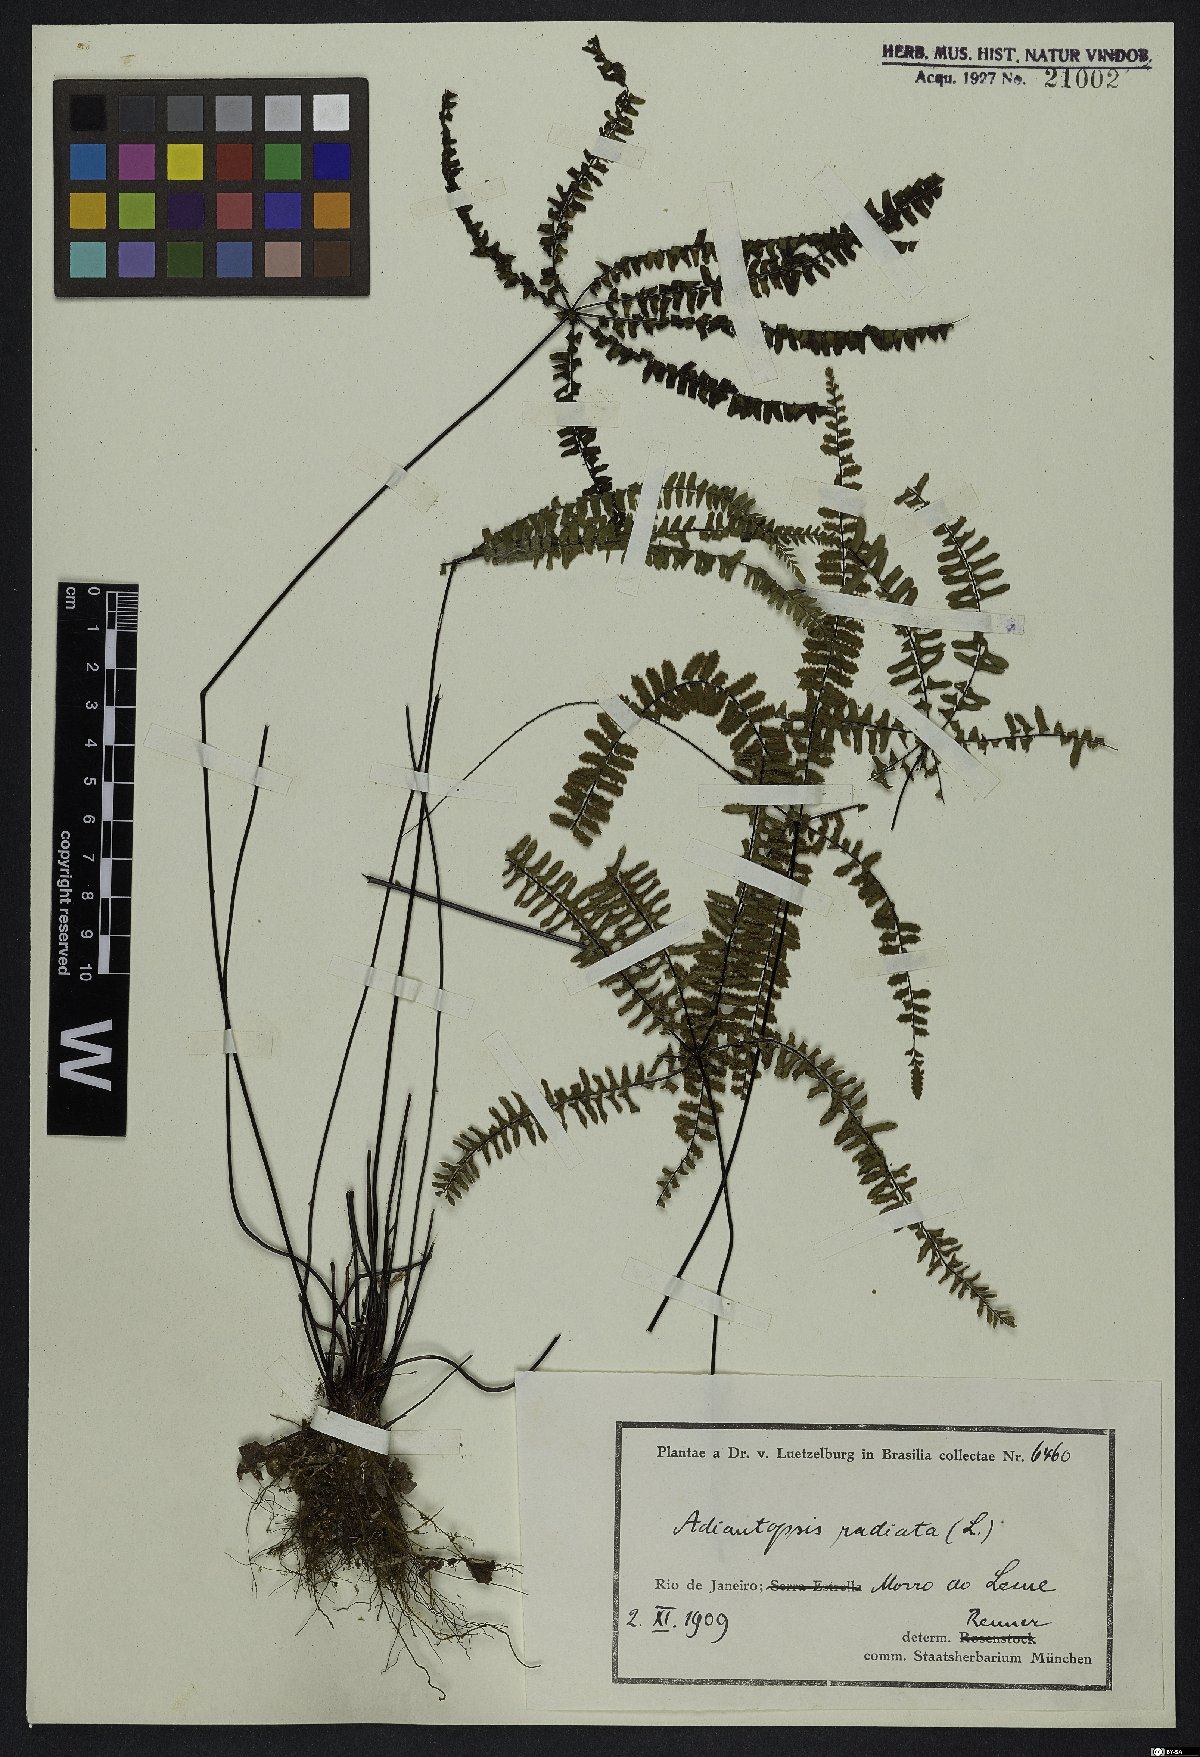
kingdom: Plantae
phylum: Tracheophyta
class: Polypodiopsida
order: Polypodiales
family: Pteridaceae
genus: Adiantopsis
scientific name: Adiantopsis radiata
